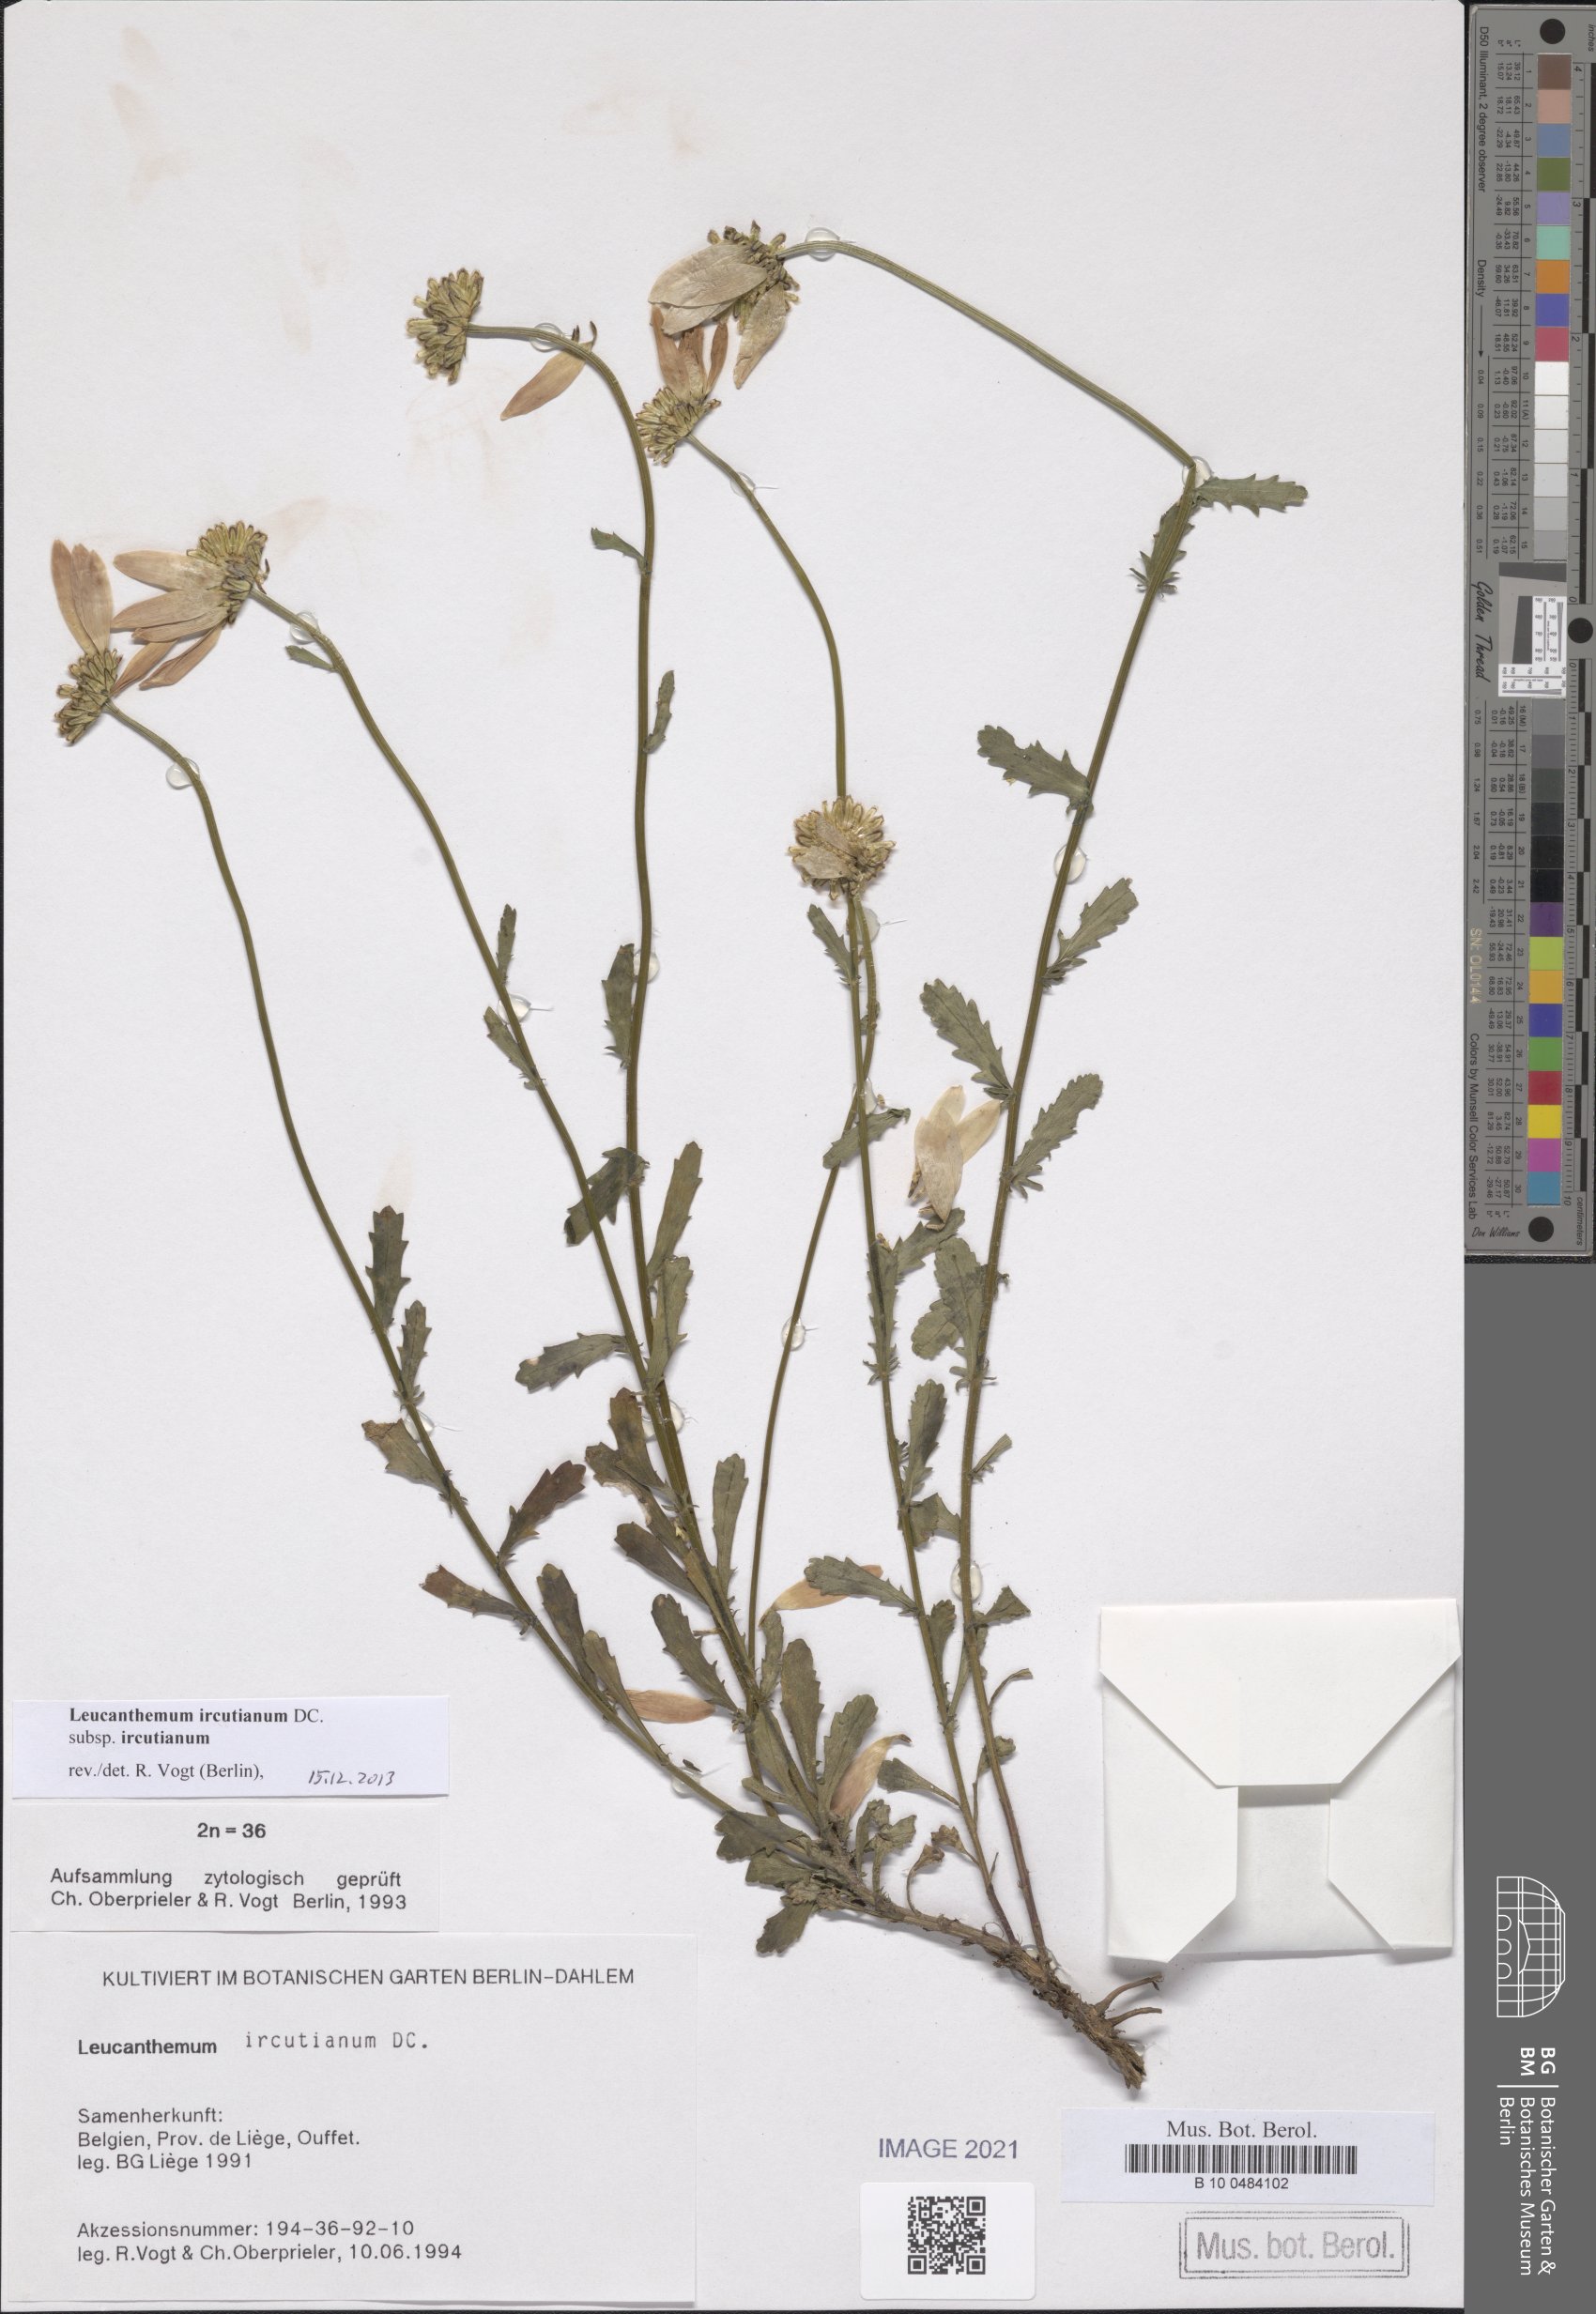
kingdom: Plantae
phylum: Tracheophyta
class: Magnoliopsida
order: Asterales
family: Asteraceae
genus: Leucanthemum
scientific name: Leucanthemum ircutianum
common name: Daisy
